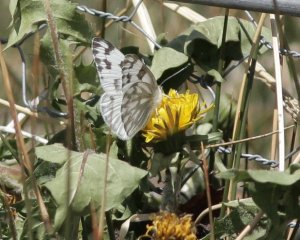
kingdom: Animalia
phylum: Arthropoda
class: Insecta
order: Lepidoptera
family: Pieridae
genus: Pontia
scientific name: Pontia protodice
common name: Checkered White
